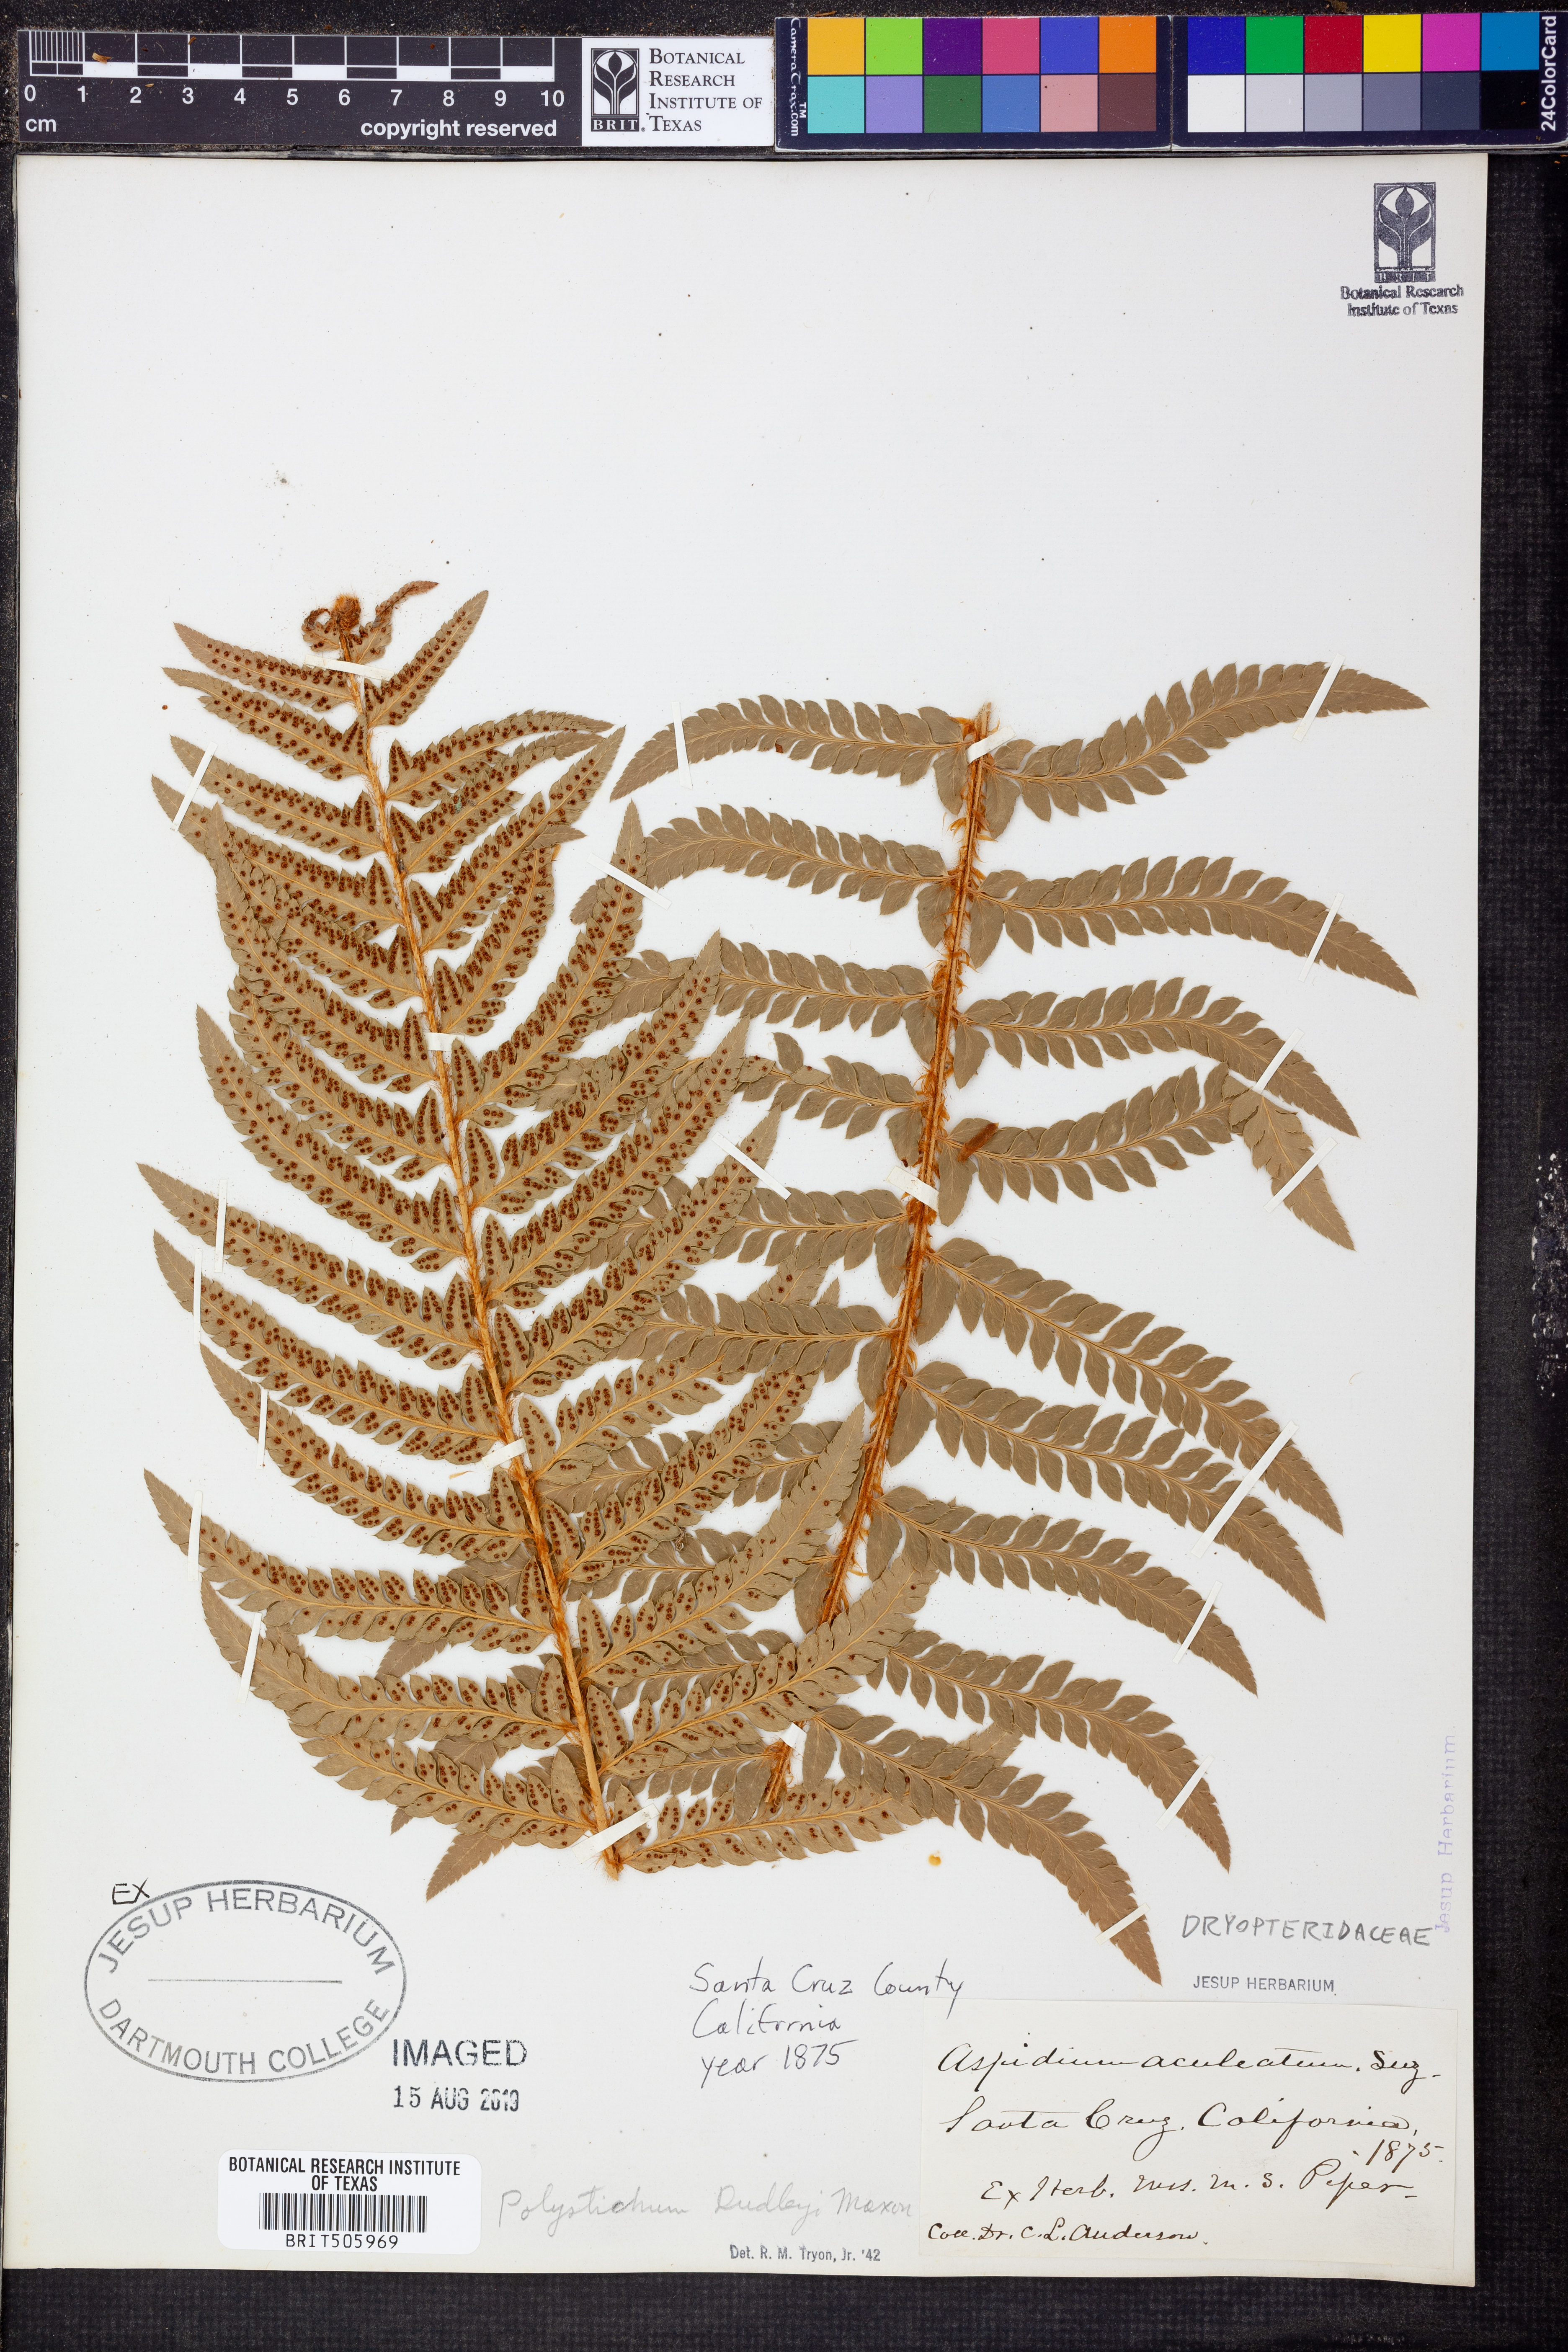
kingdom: Plantae
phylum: Tracheophyta
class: Polypodiopsida
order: Polypodiales
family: Dryopteridaceae
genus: Polystichum
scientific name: Polystichum dudleyi
